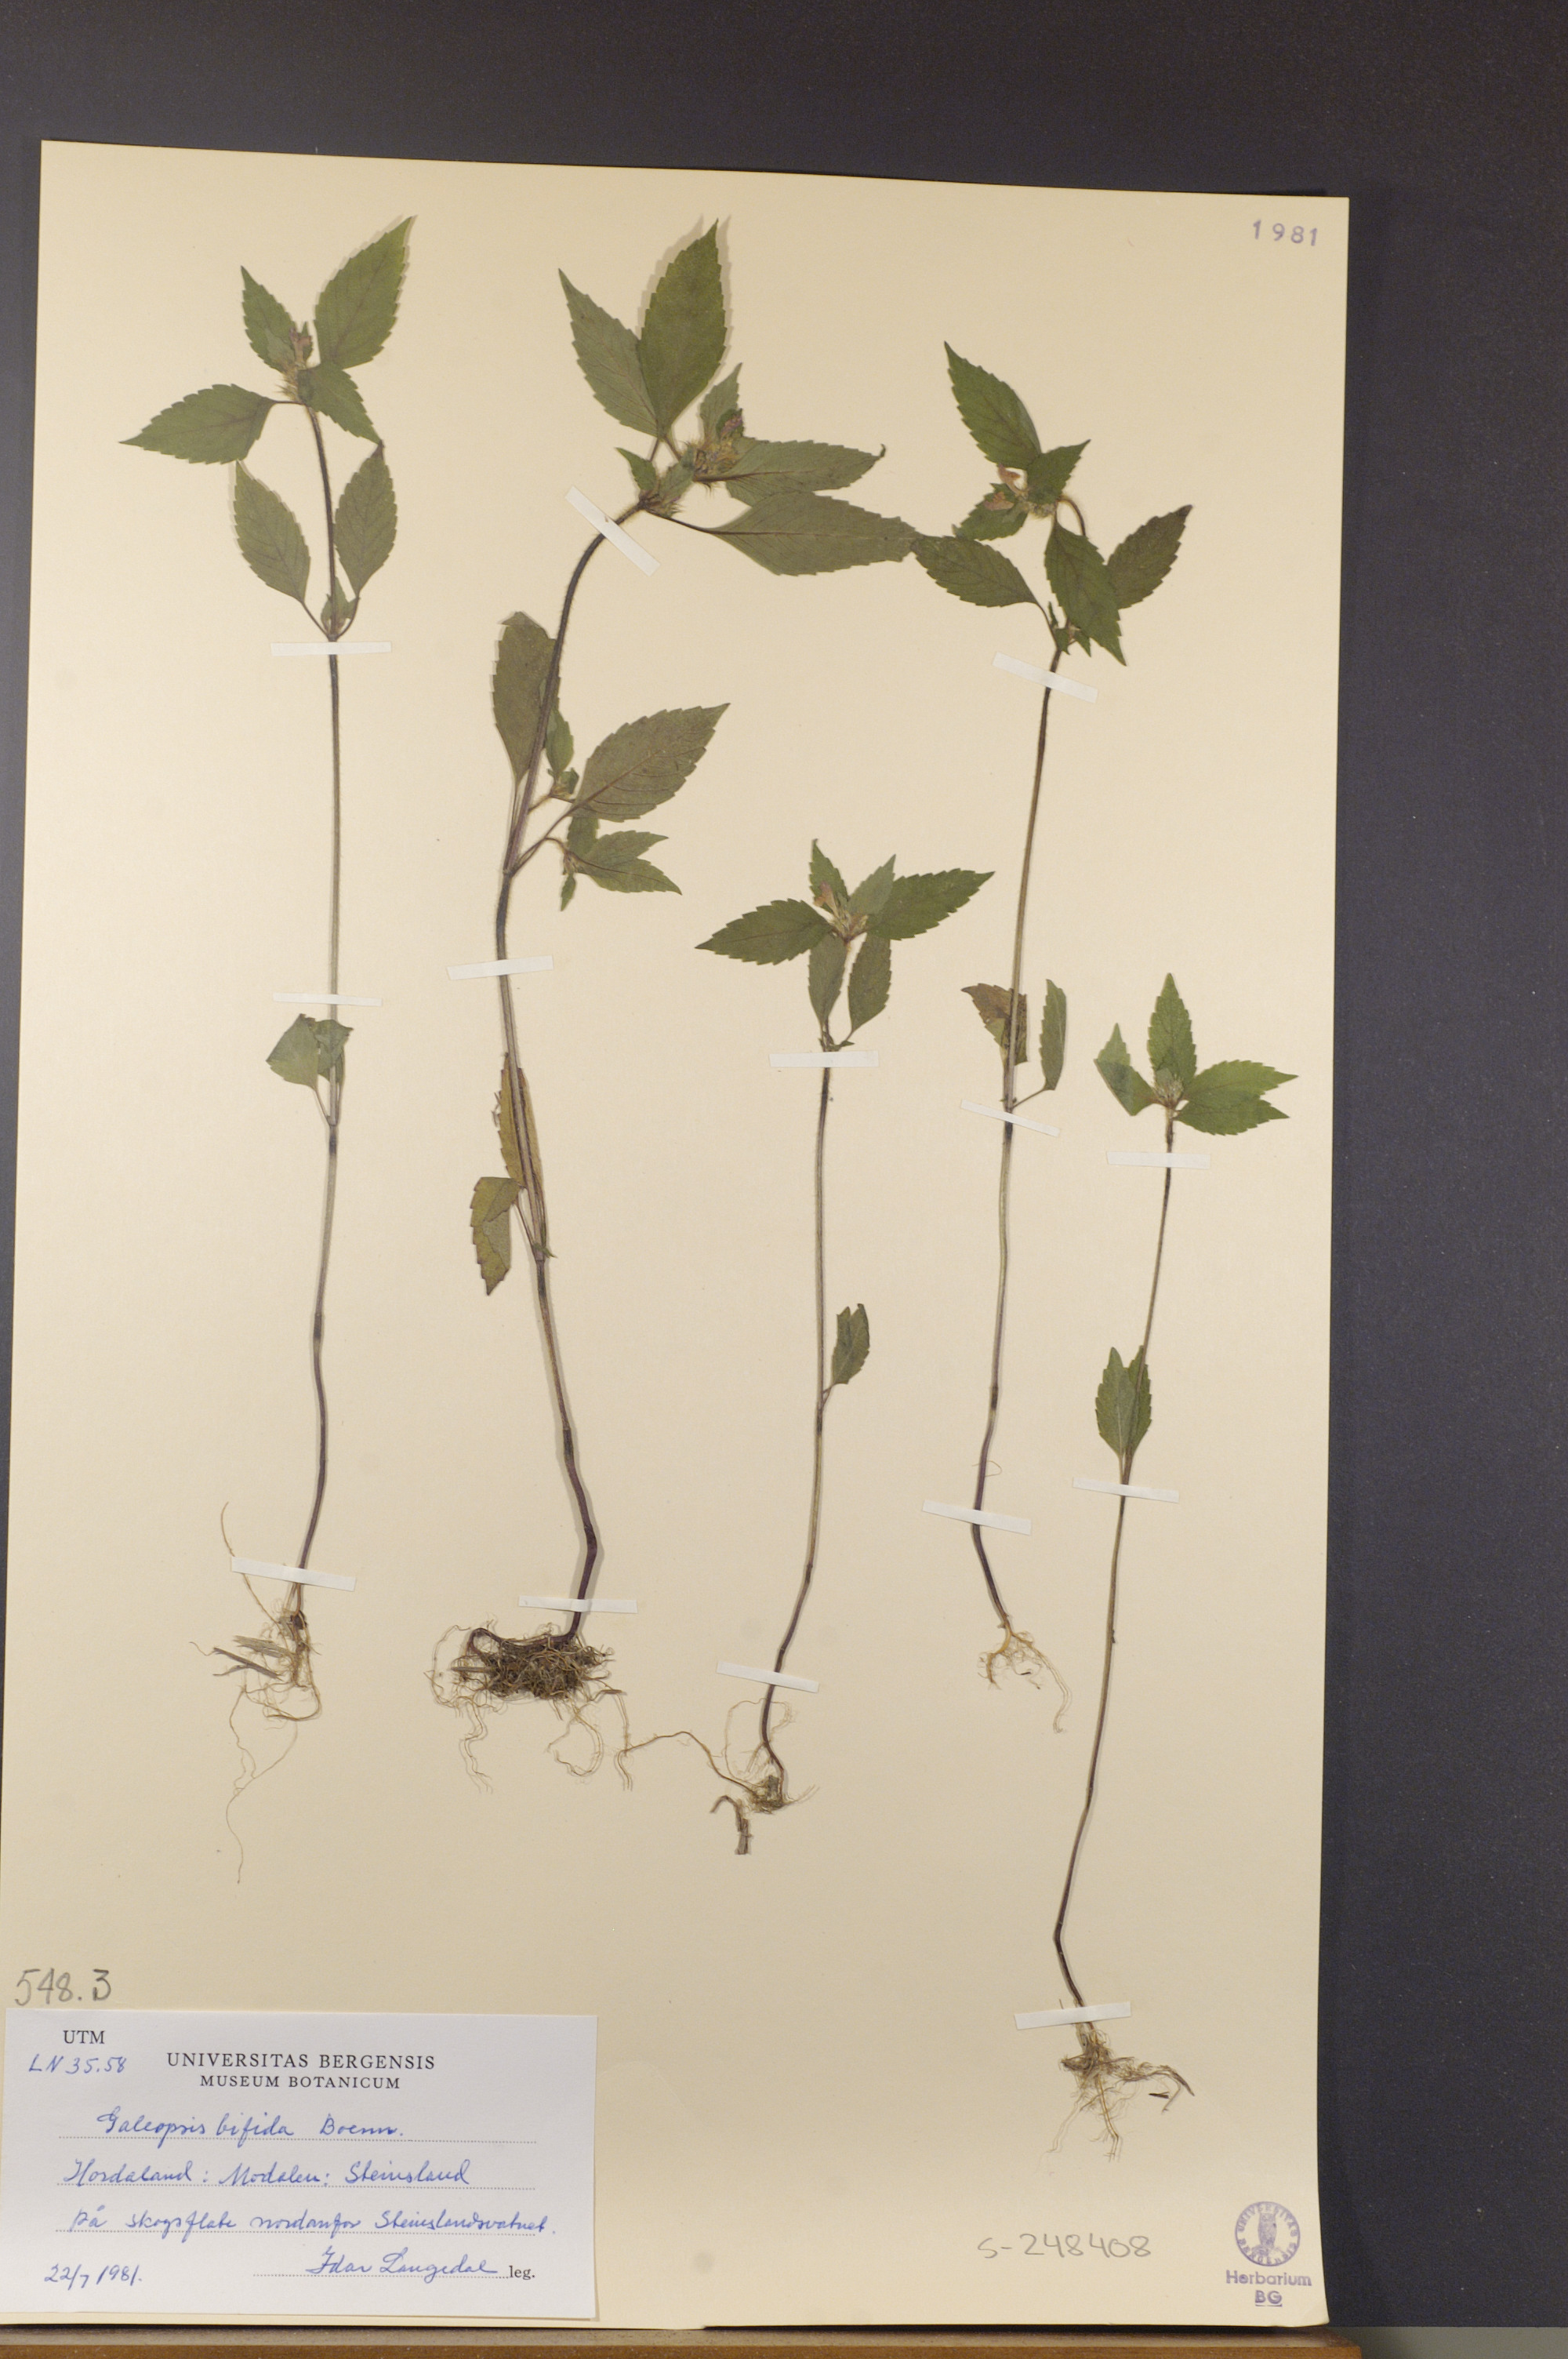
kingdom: Plantae
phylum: Tracheophyta
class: Magnoliopsida
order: Lamiales
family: Lamiaceae
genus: Galeopsis
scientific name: Galeopsis bifida
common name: Bifid hemp-nettle
